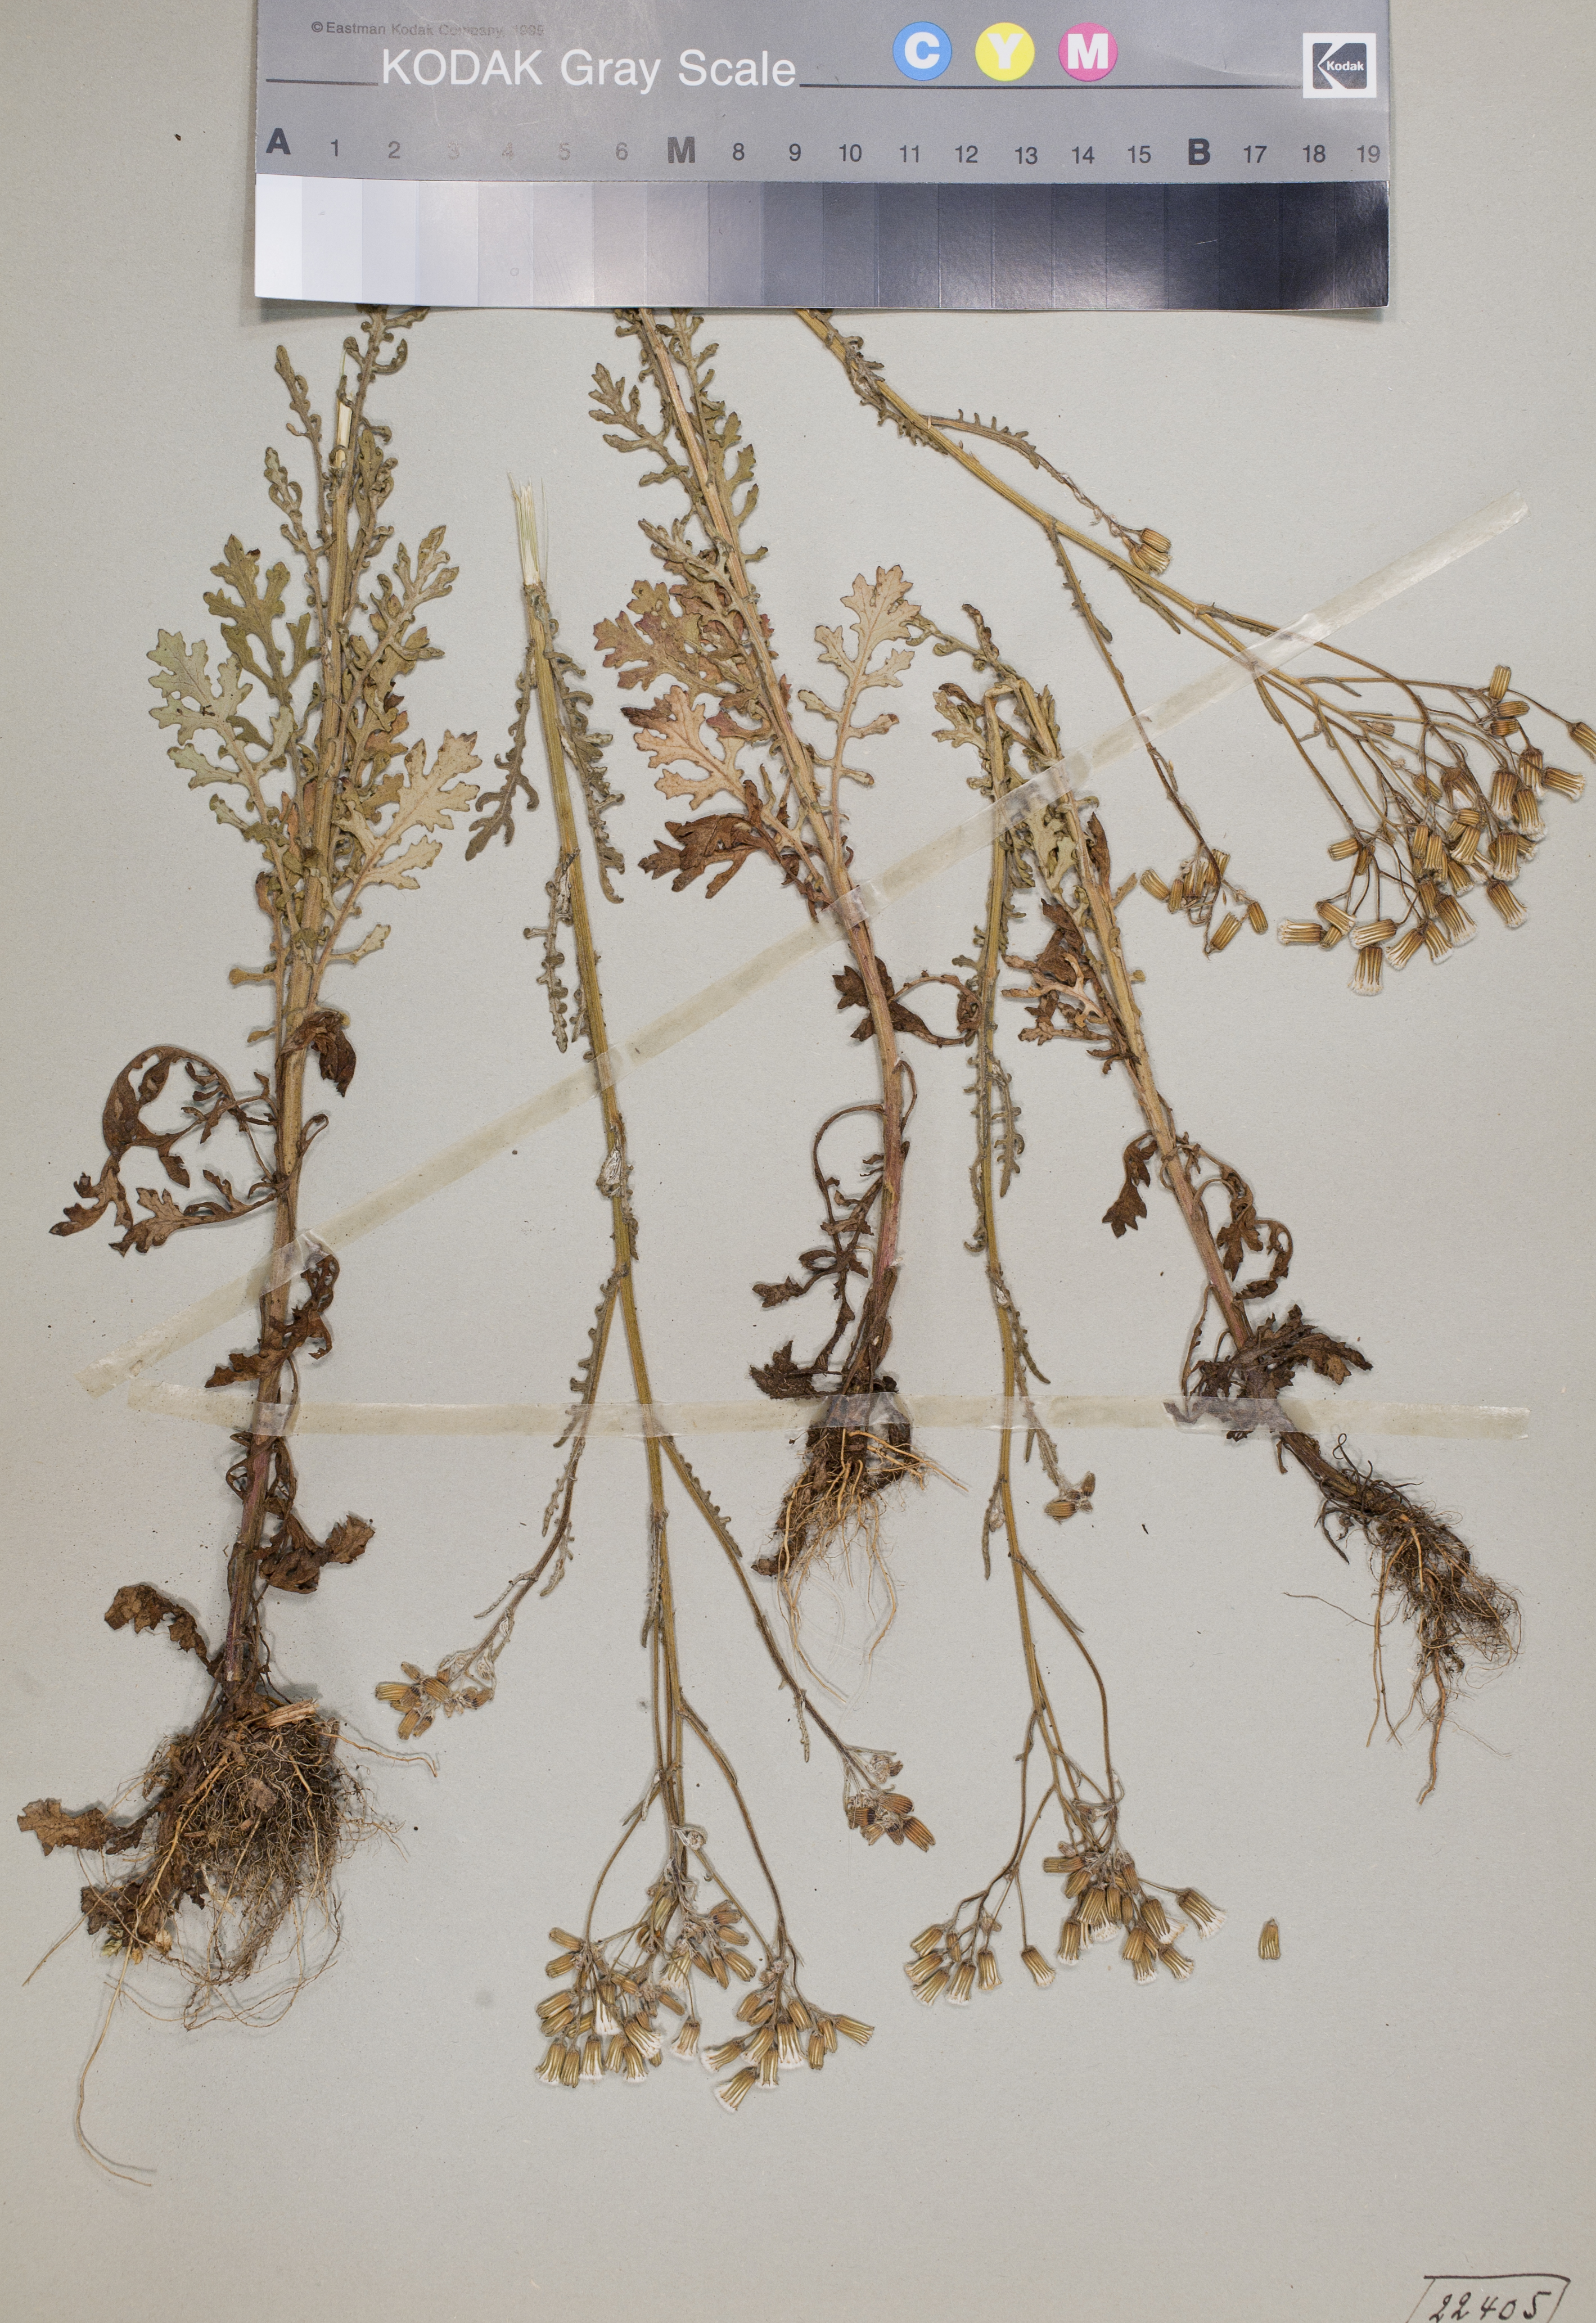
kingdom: Plantae
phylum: Tracheophyta
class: Magnoliopsida
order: Asterales
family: Asteraceae
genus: Senecio
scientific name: Senecio sylvaticus
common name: Woodland ragwort
